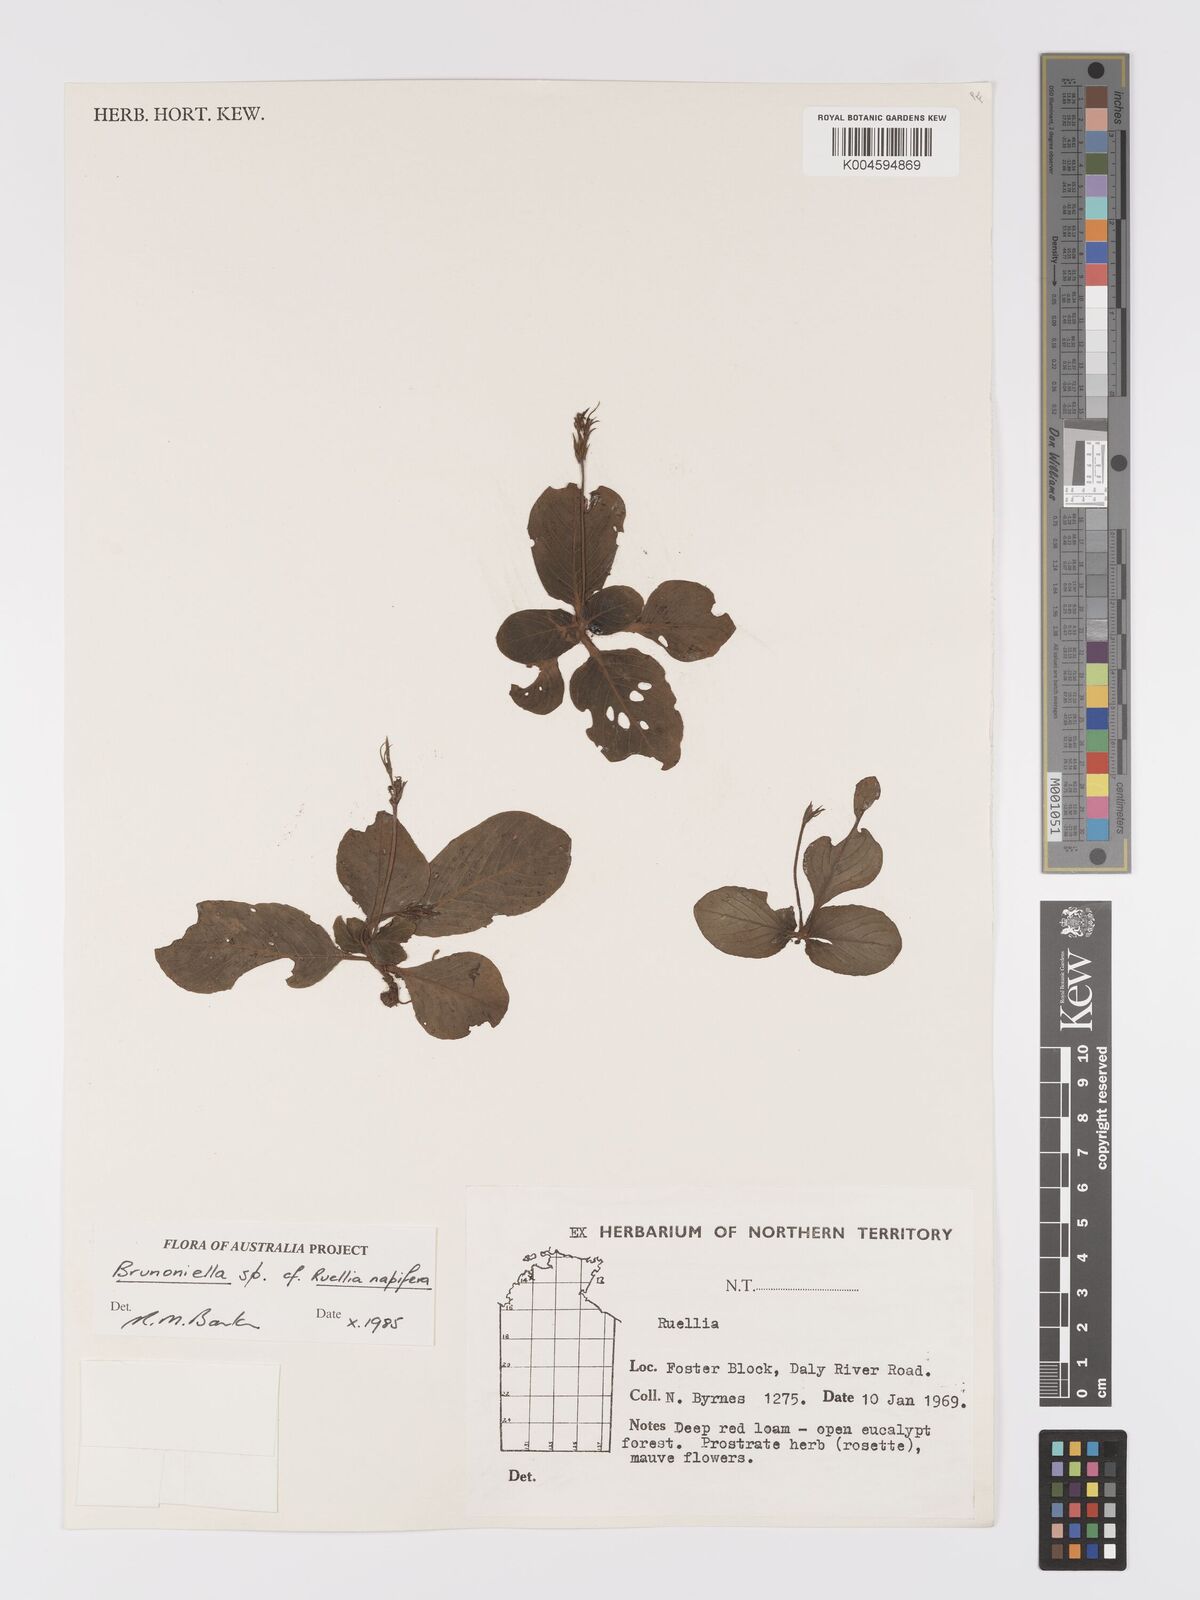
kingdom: Plantae
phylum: Tracheophyta
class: Magnoliopsida
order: Lamiales
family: Acanthaceae
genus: Brunoniella
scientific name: Brunoniella
